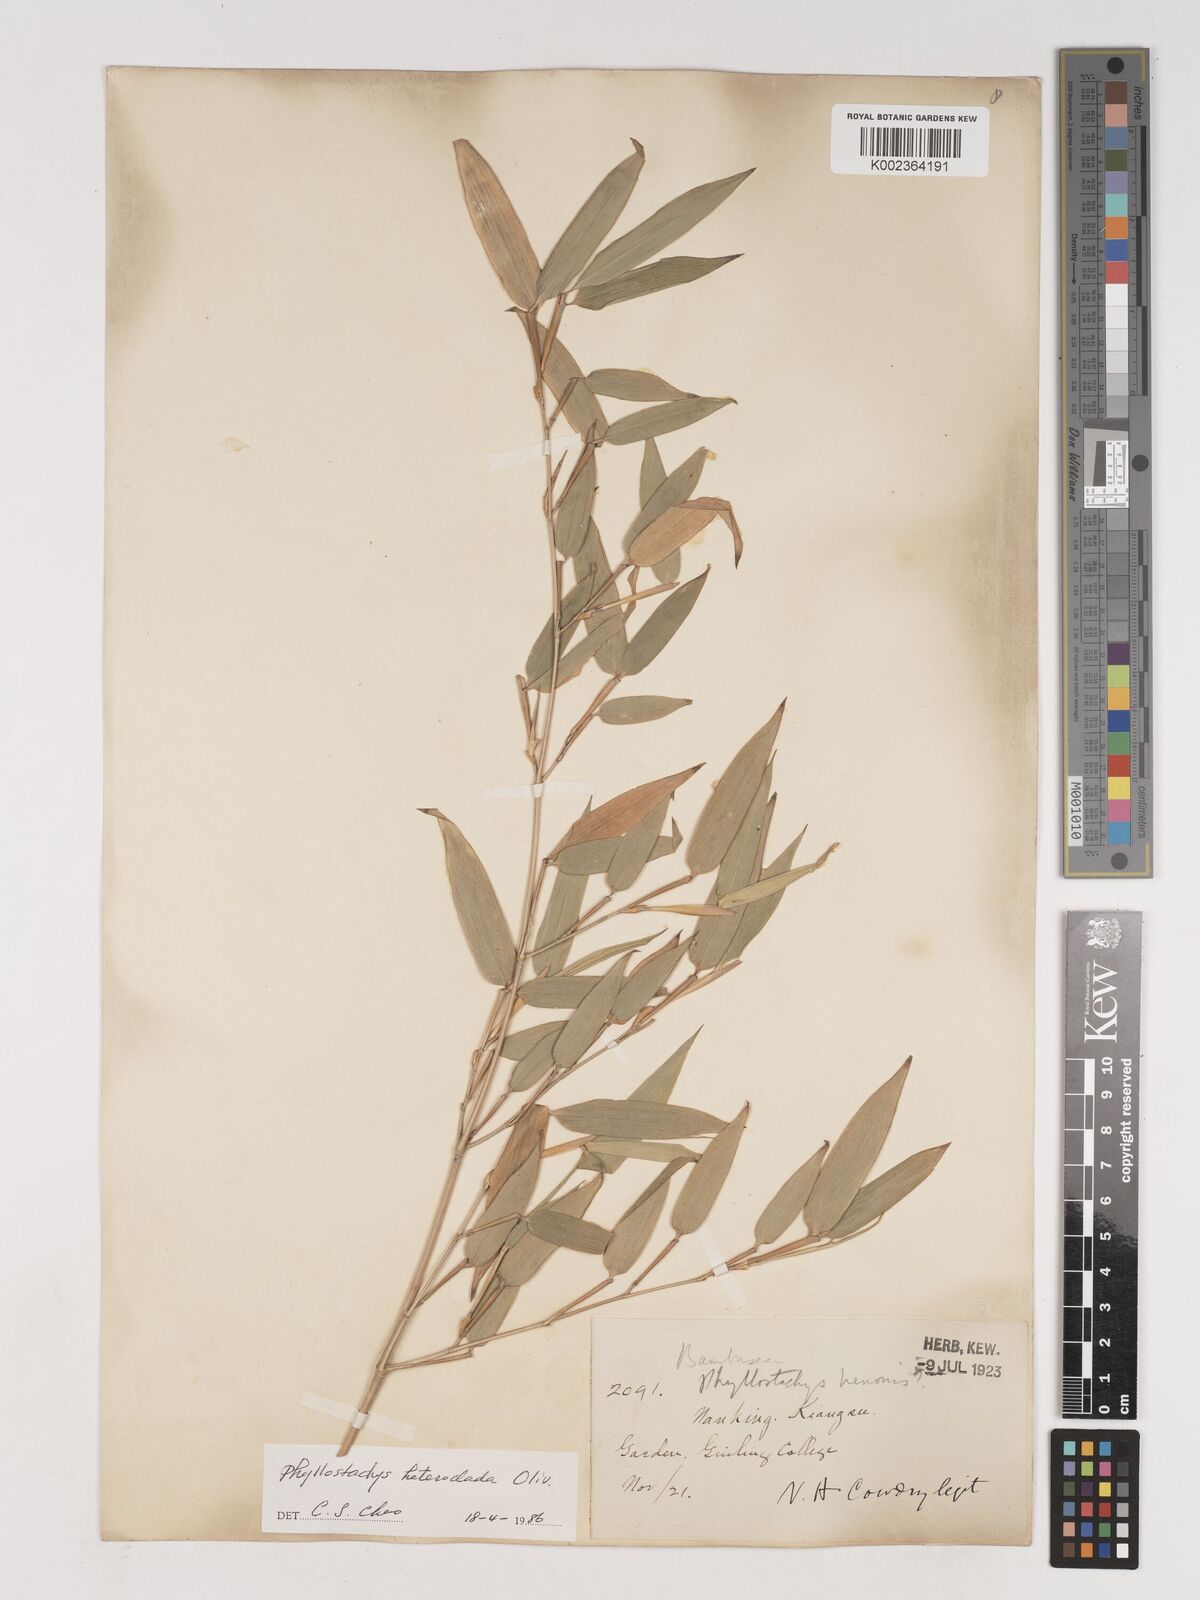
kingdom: Plantae
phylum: Tracheophyta
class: Liliopsida
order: Poales
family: Poaceae
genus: Phyllostachys
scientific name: Phyllostachys heteroclada
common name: Fishscale bamboo
